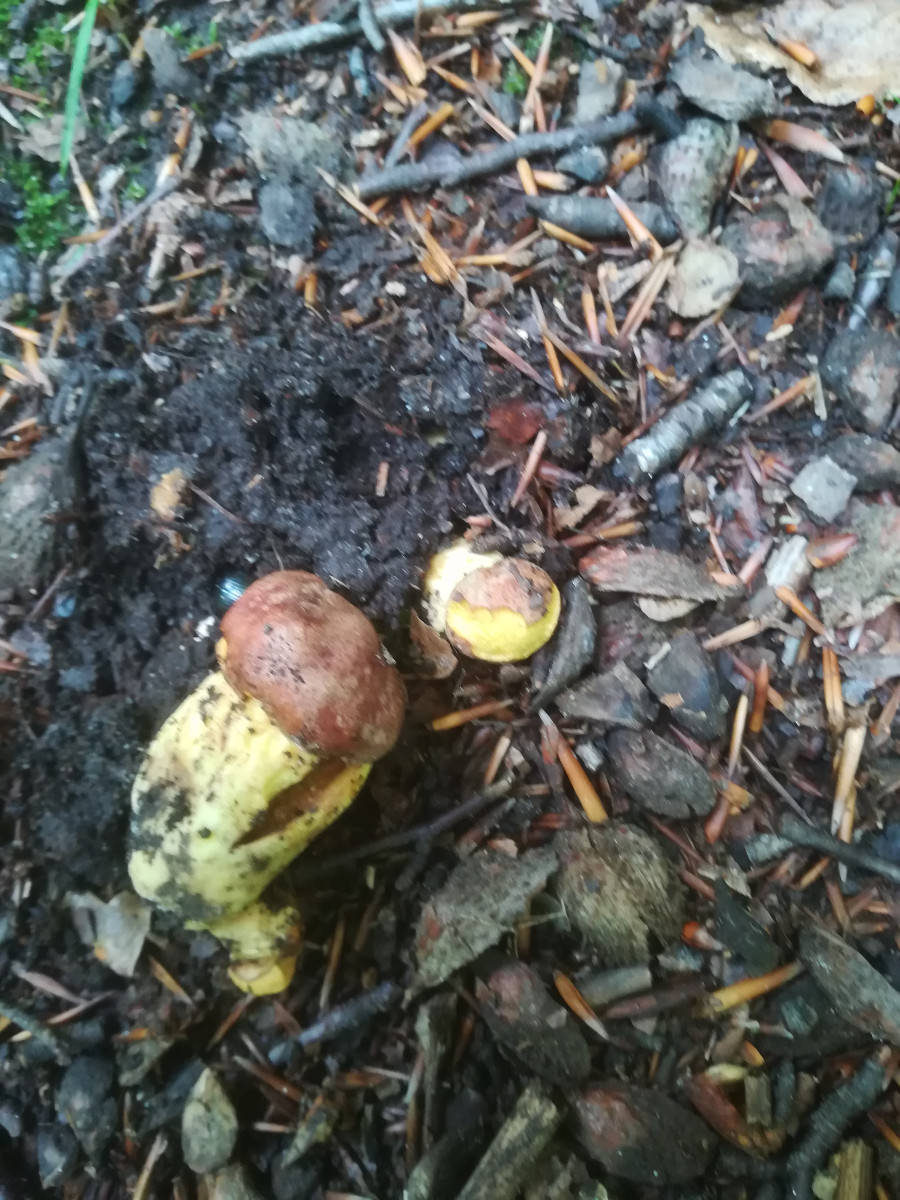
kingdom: Fungi
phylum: Basidiomycota
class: Agaricomycetes
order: Boletales
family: Boletaceae
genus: Butyriboletus
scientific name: Butyriboletus appendiculatus
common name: tenstokket rørhat
